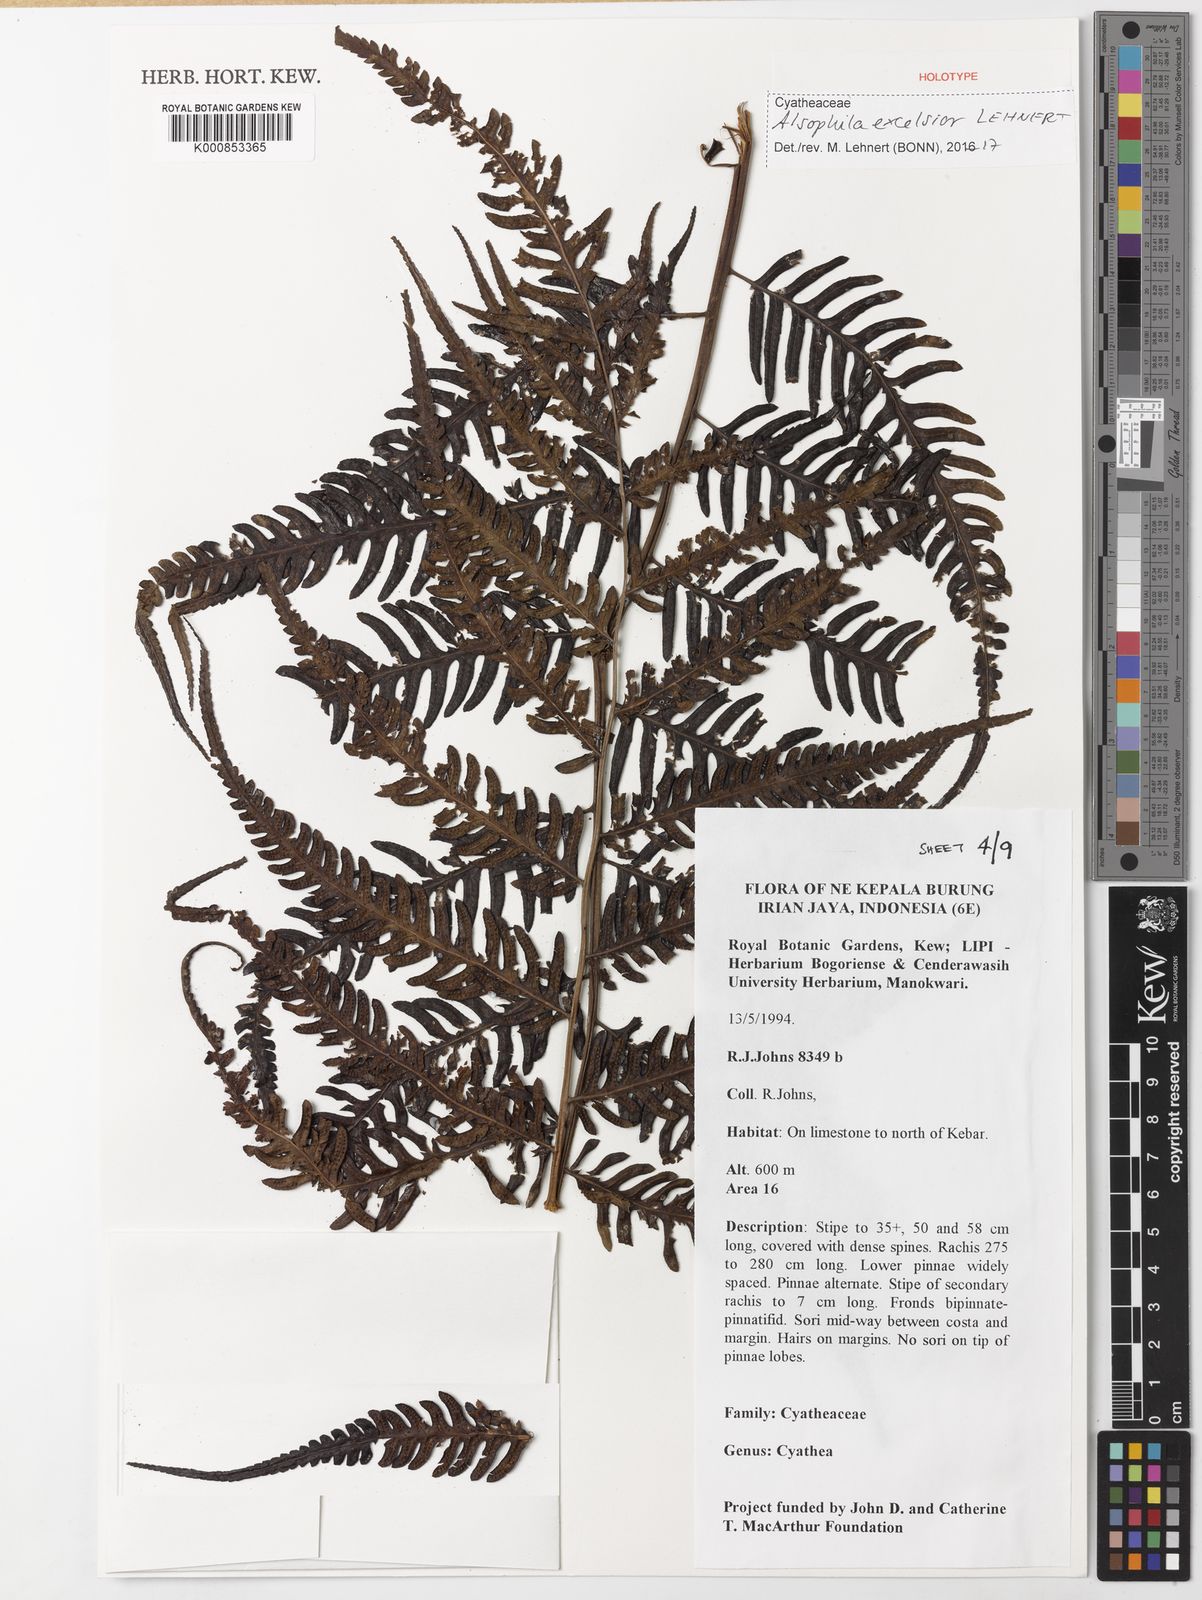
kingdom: Plantae
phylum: Tracheophyta
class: Polypodiopsida
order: Cyatheales
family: Cyatheaceae
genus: Alsophila
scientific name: Alsophila excelsior
